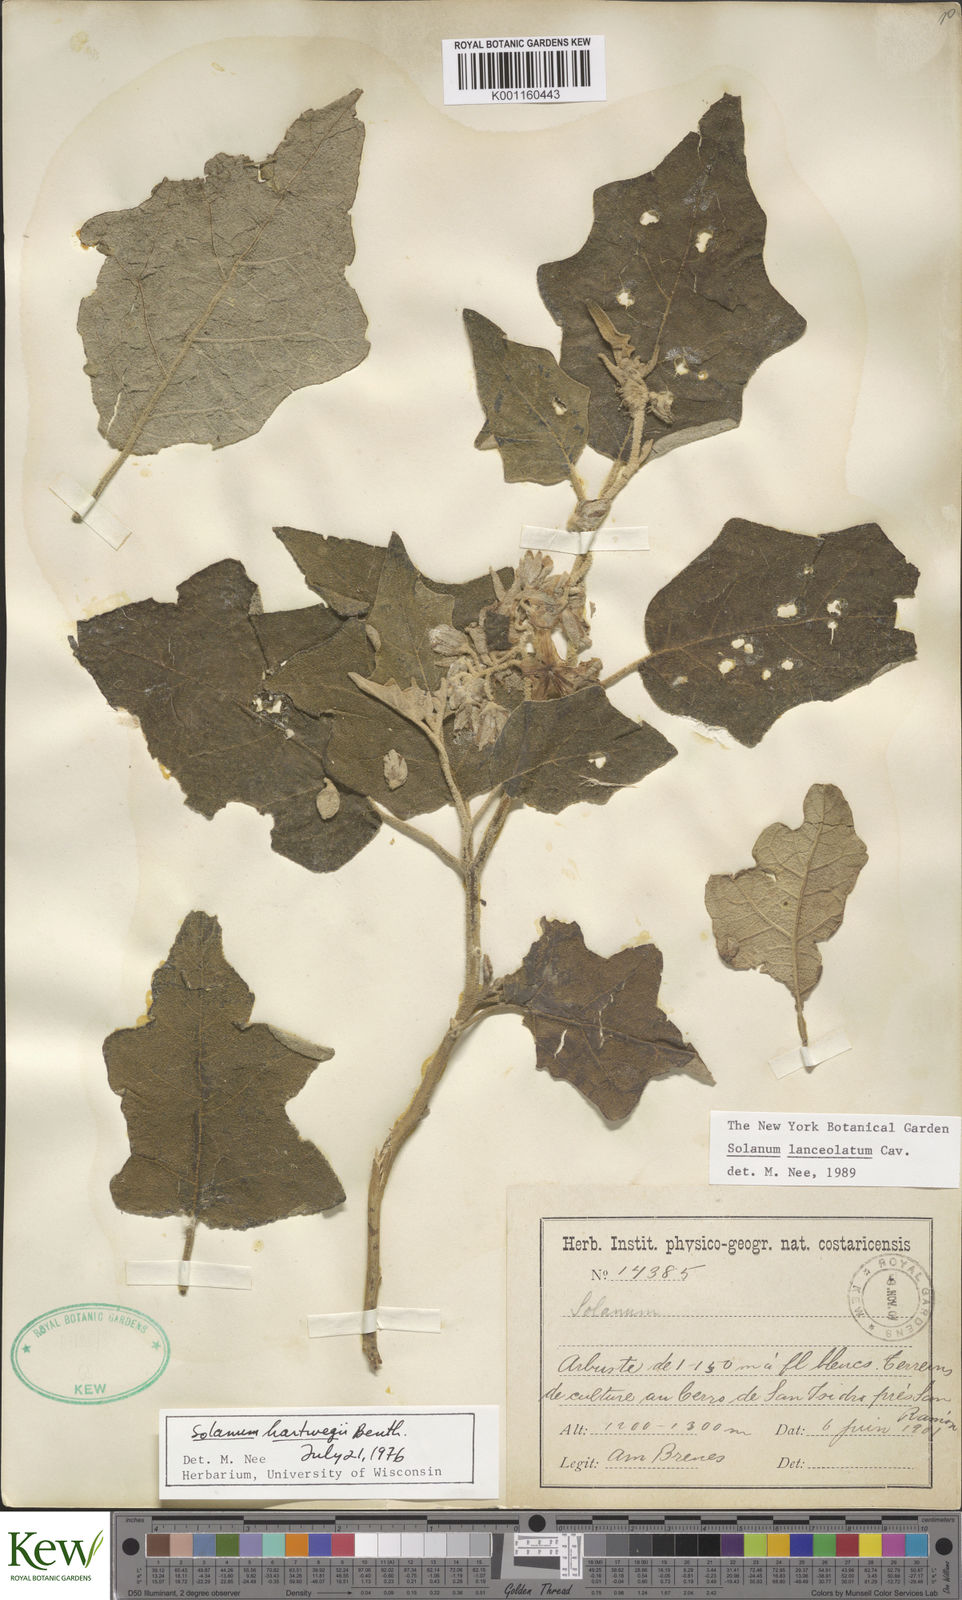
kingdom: Plantae
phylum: Tracheophyta
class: Magnoliopsida
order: Solanales
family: Solanaceae
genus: Solanum
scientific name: Solanum lanceolatum
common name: Orangeberry nightshade
